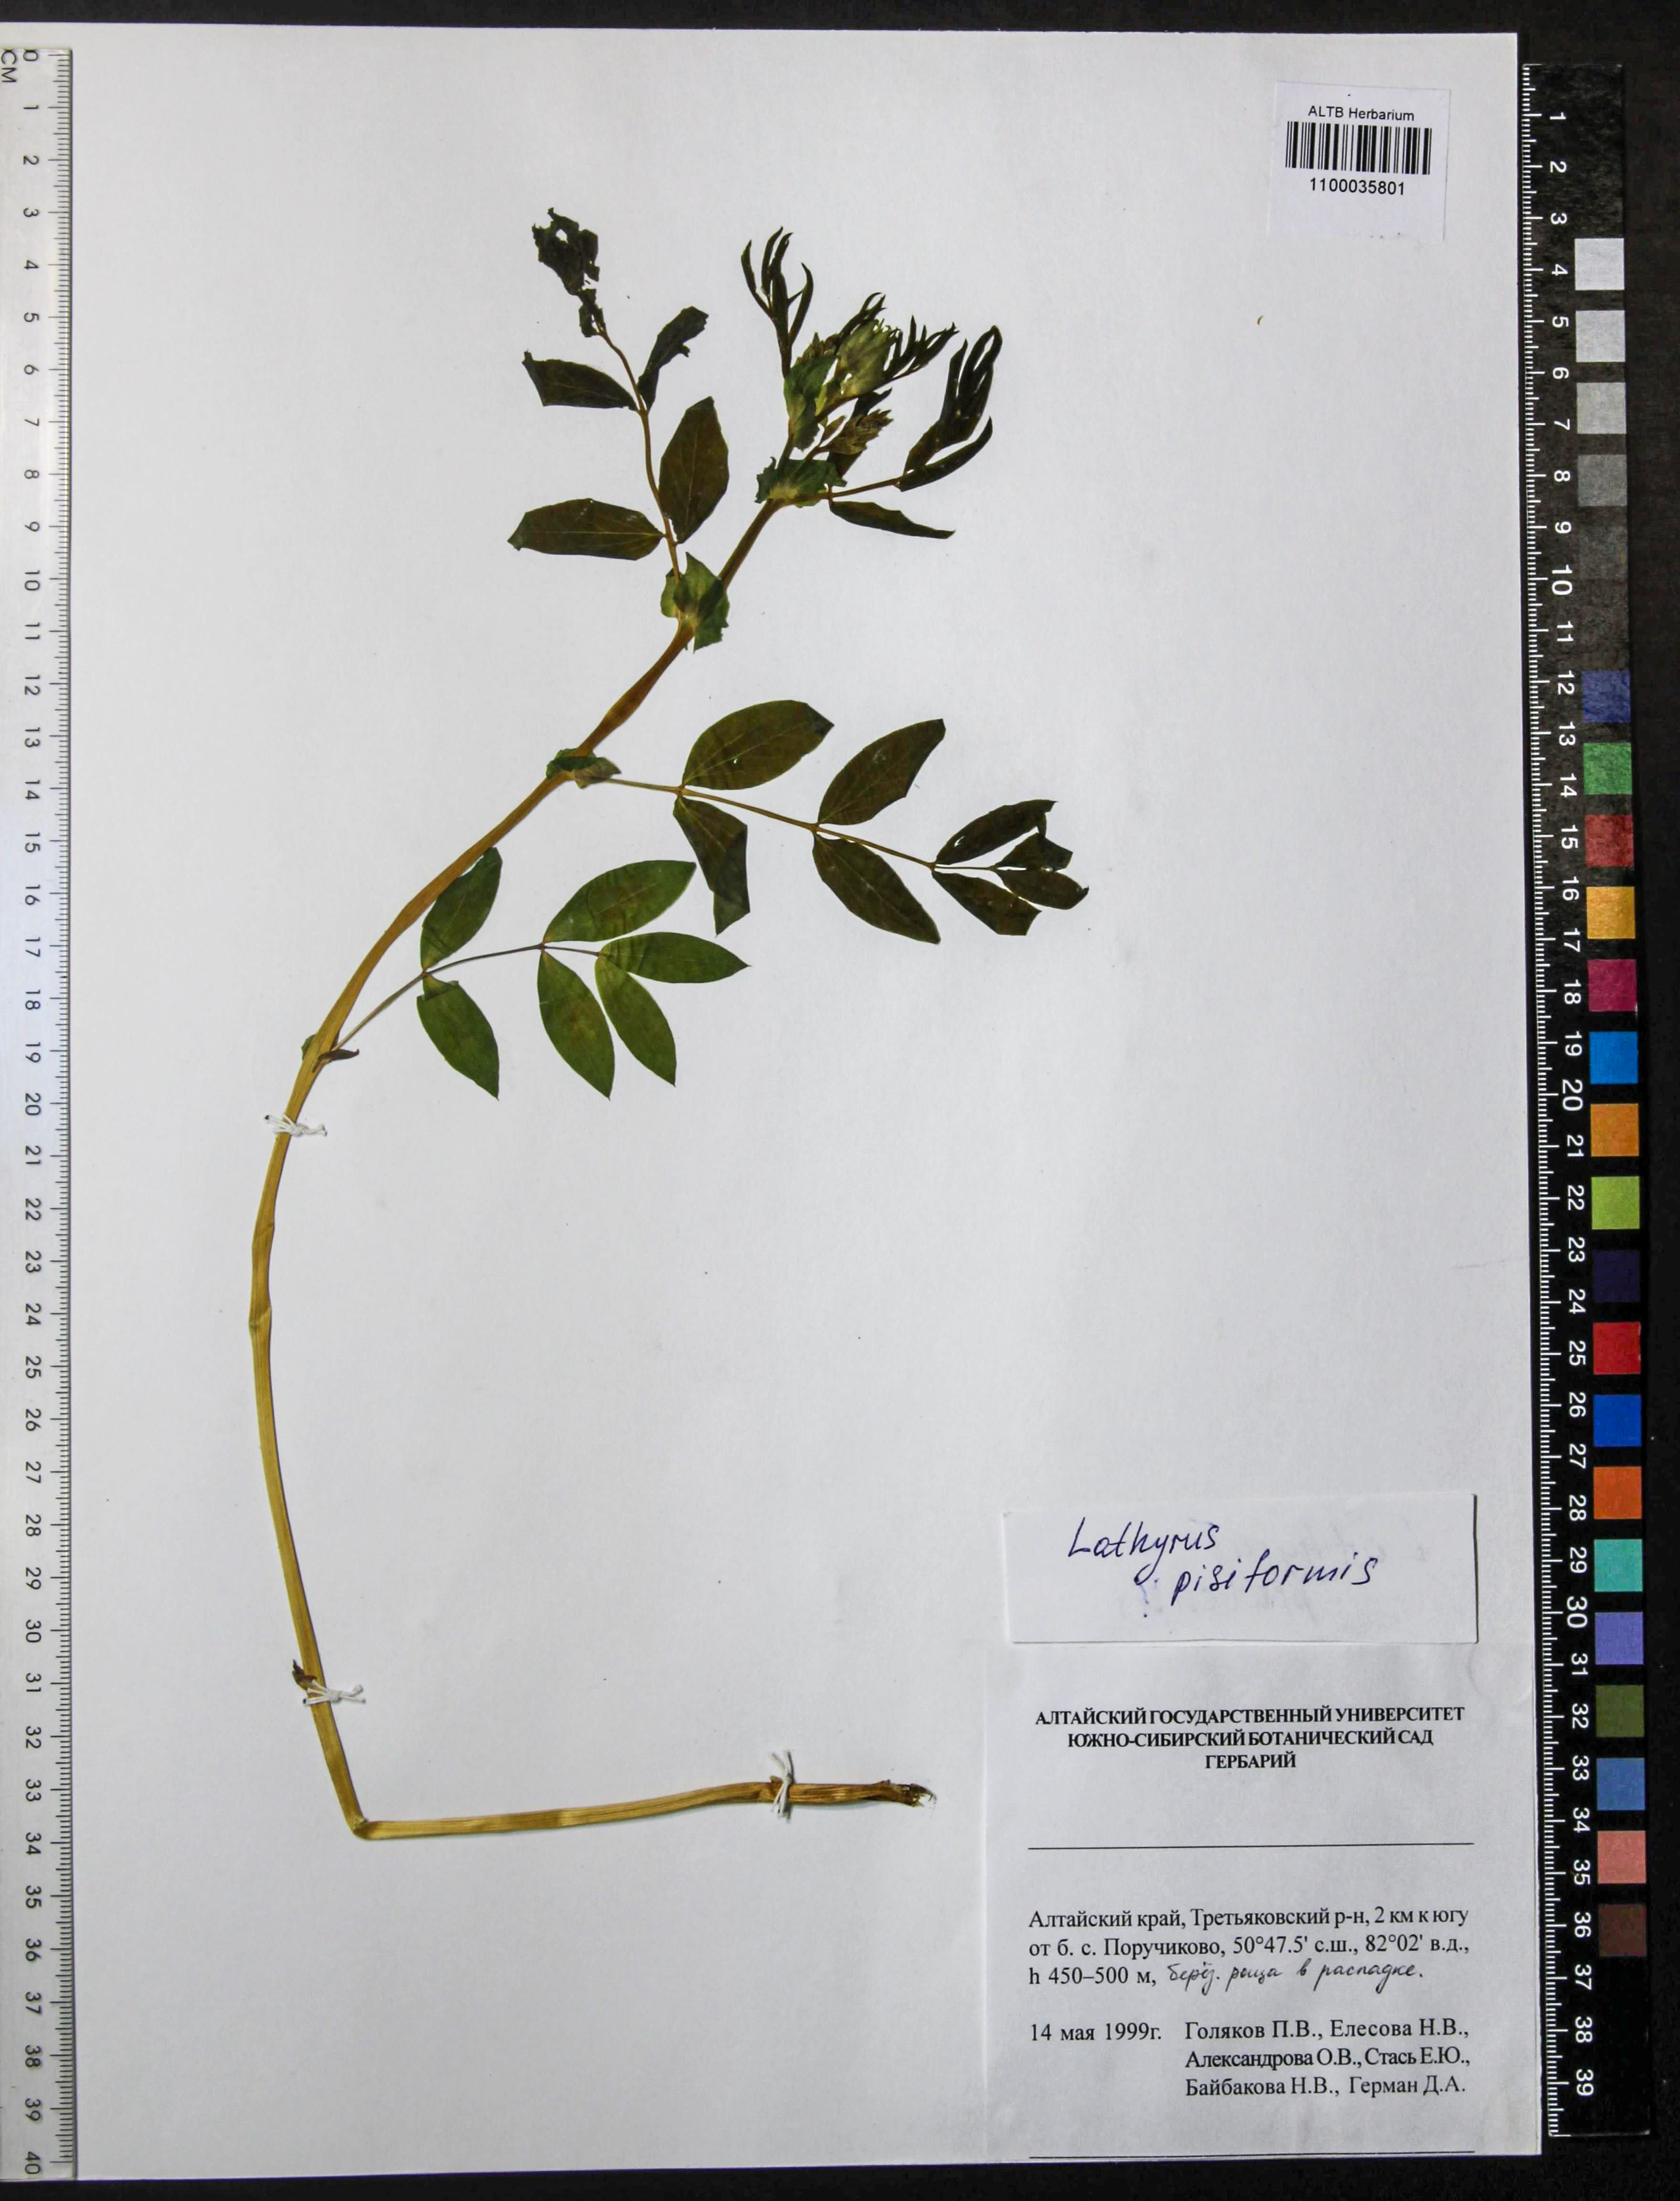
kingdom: Plantae
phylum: Tracheophyta
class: Magnoliopsida
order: Fabales
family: Fabaceae
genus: Lathyrus
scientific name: Lathyrus pisiformis
